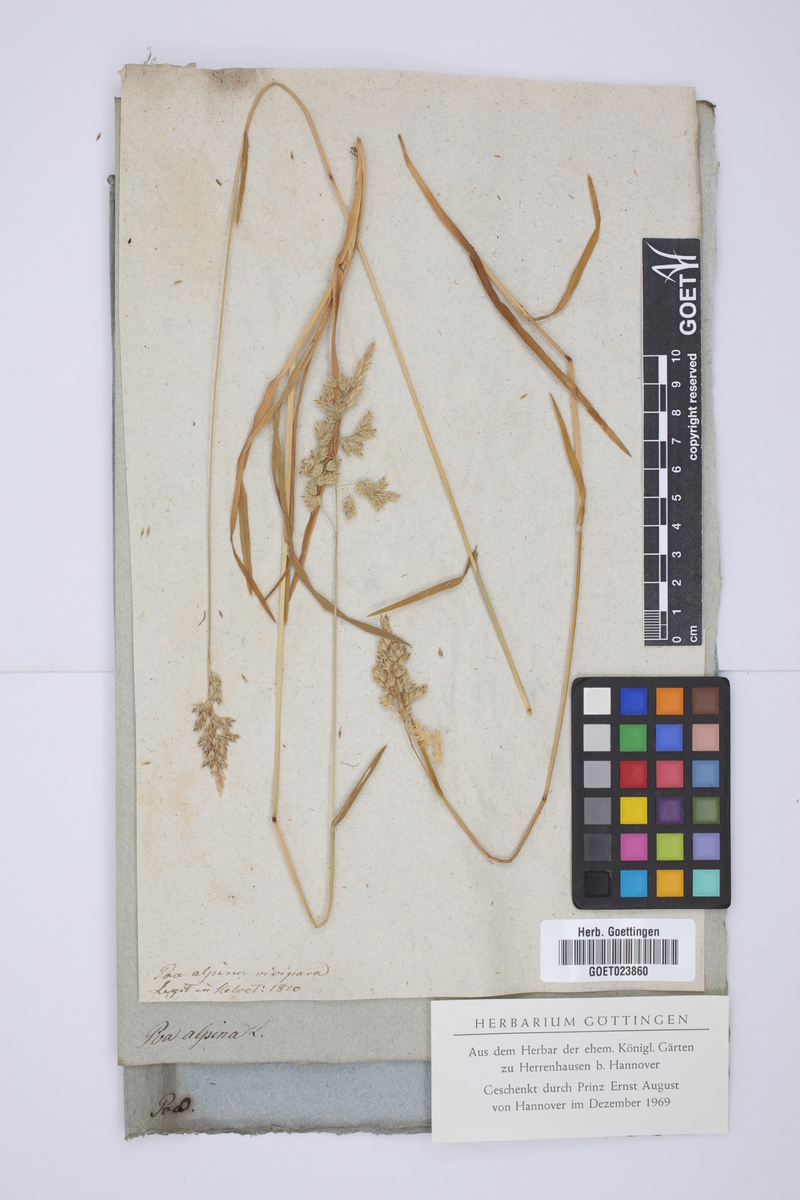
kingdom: Plantae
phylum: Tracheophyta
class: Liliopsida
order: Poales
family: Poaceae
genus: Poa
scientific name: Poa alpina
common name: Alpine bluegrass
